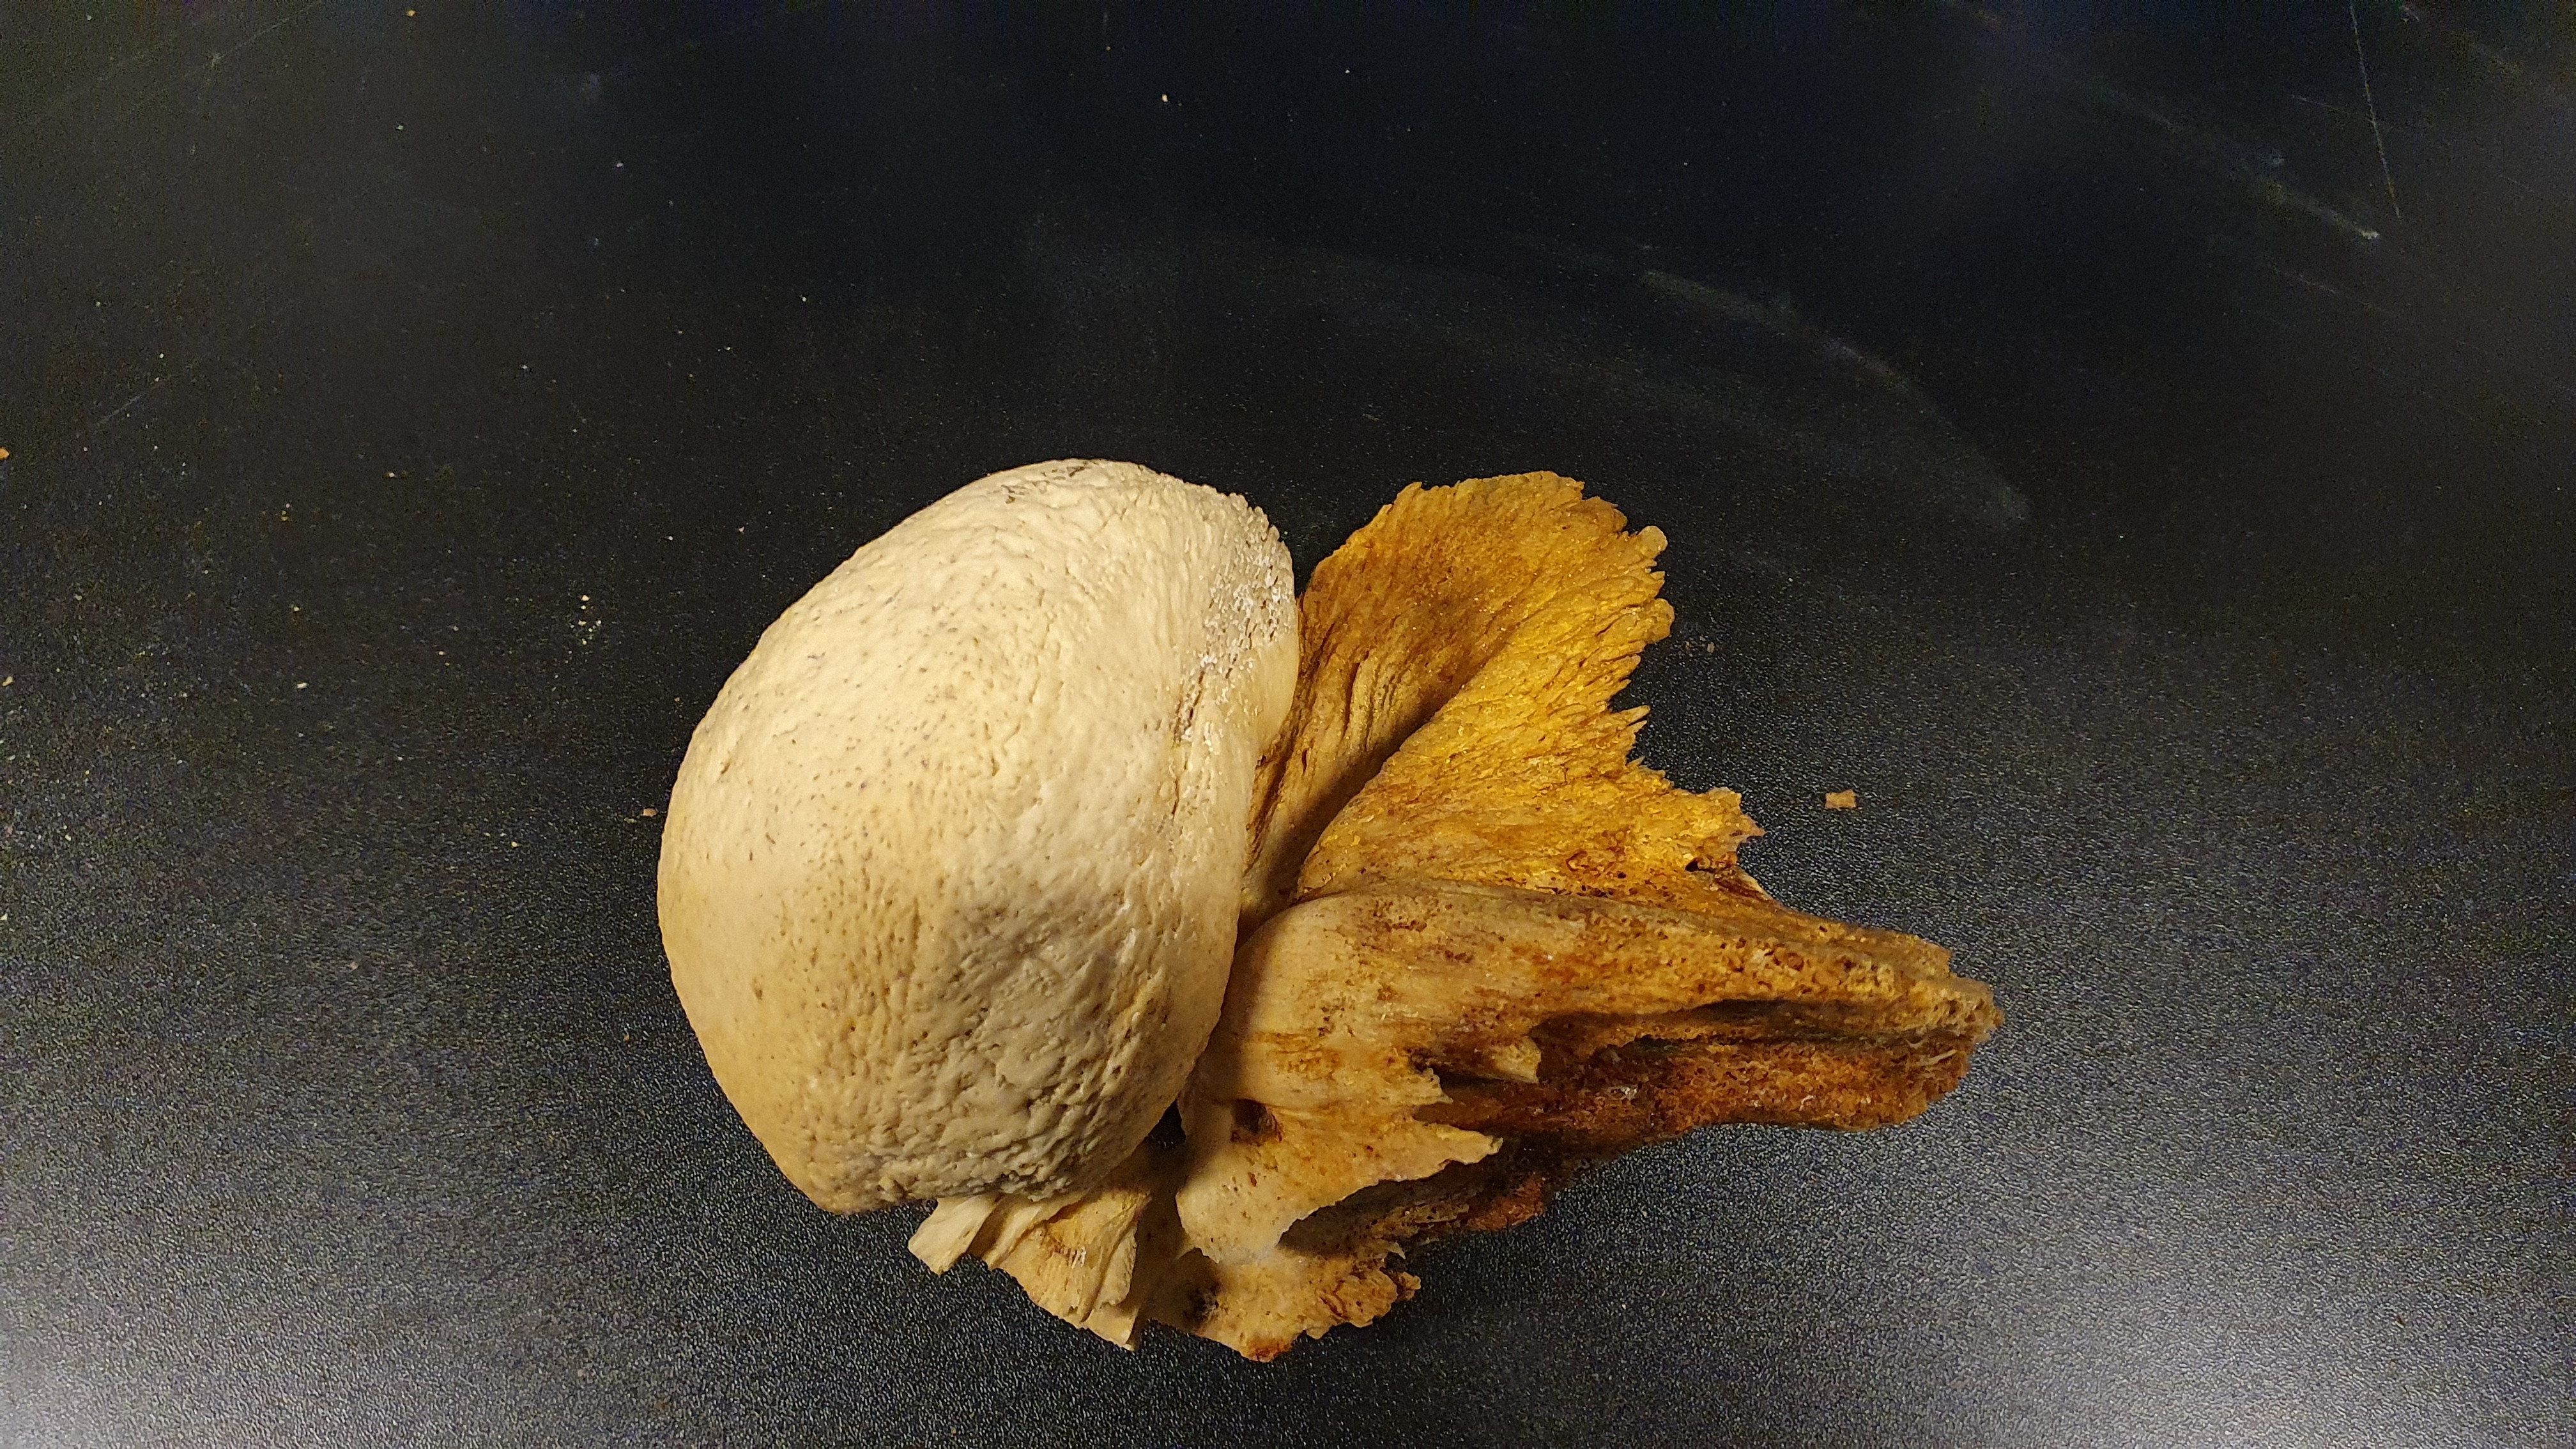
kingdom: Animalia
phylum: Chordata
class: Mammalia
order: Cetacea
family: Balaenopteridae
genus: Megaptera
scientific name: Megaptera novaeangliae
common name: Humpback whale
